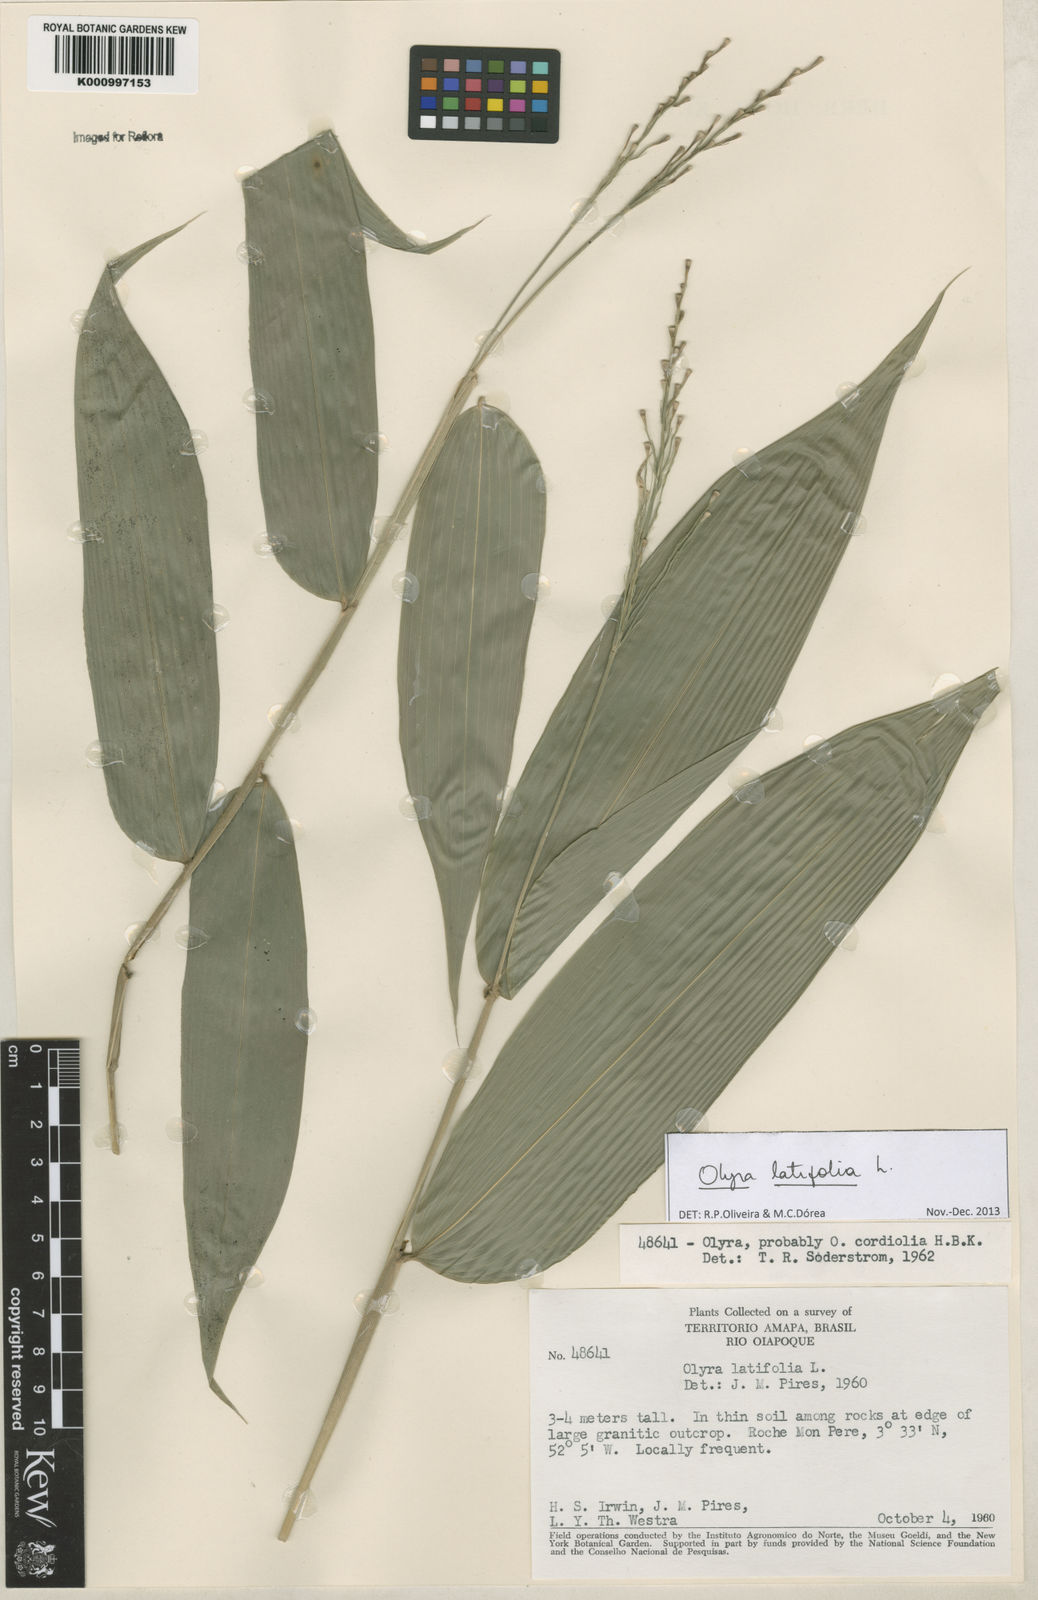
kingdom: Plantae
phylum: Tracheophyta
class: Liliopsida
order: Poales
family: Poaceae
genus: Olyra
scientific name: Olyra latifolia
